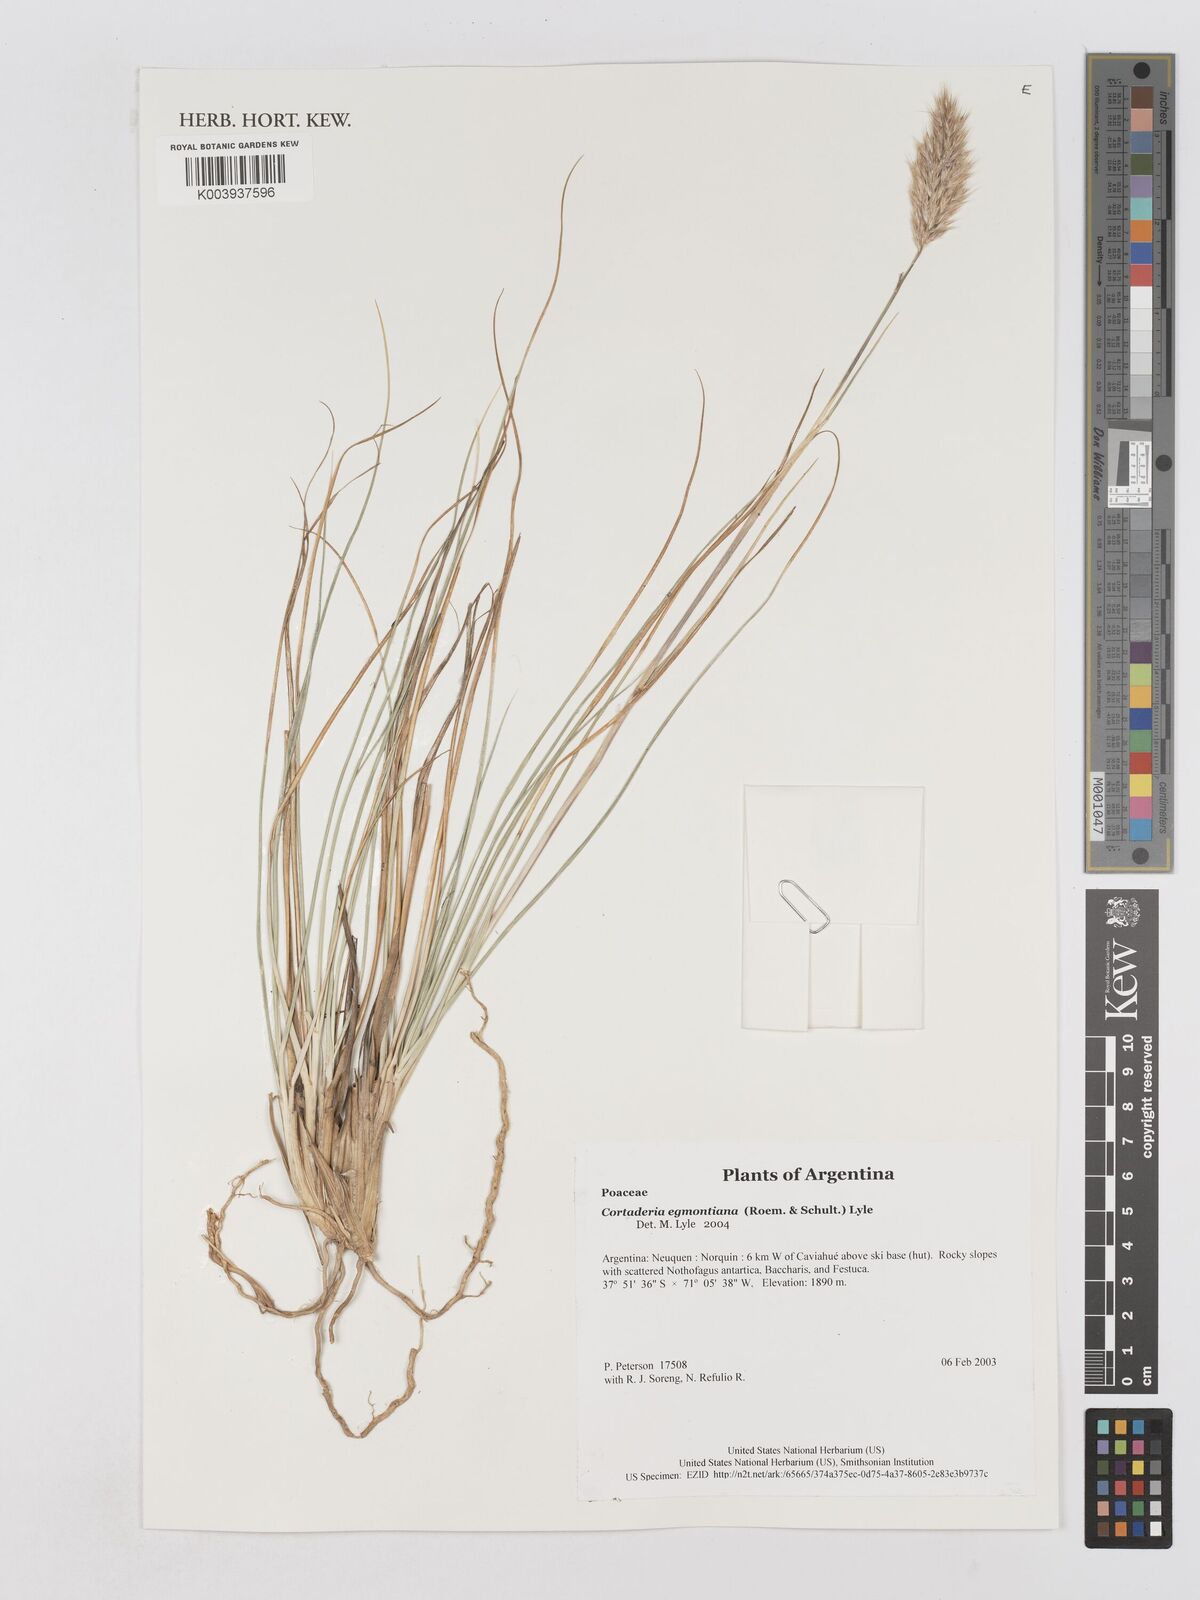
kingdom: Plantae
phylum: Tracheophyta
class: Liliopsida
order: Poales
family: Poaceae
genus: Cortaderia
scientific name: Cortaderia egmontiana
